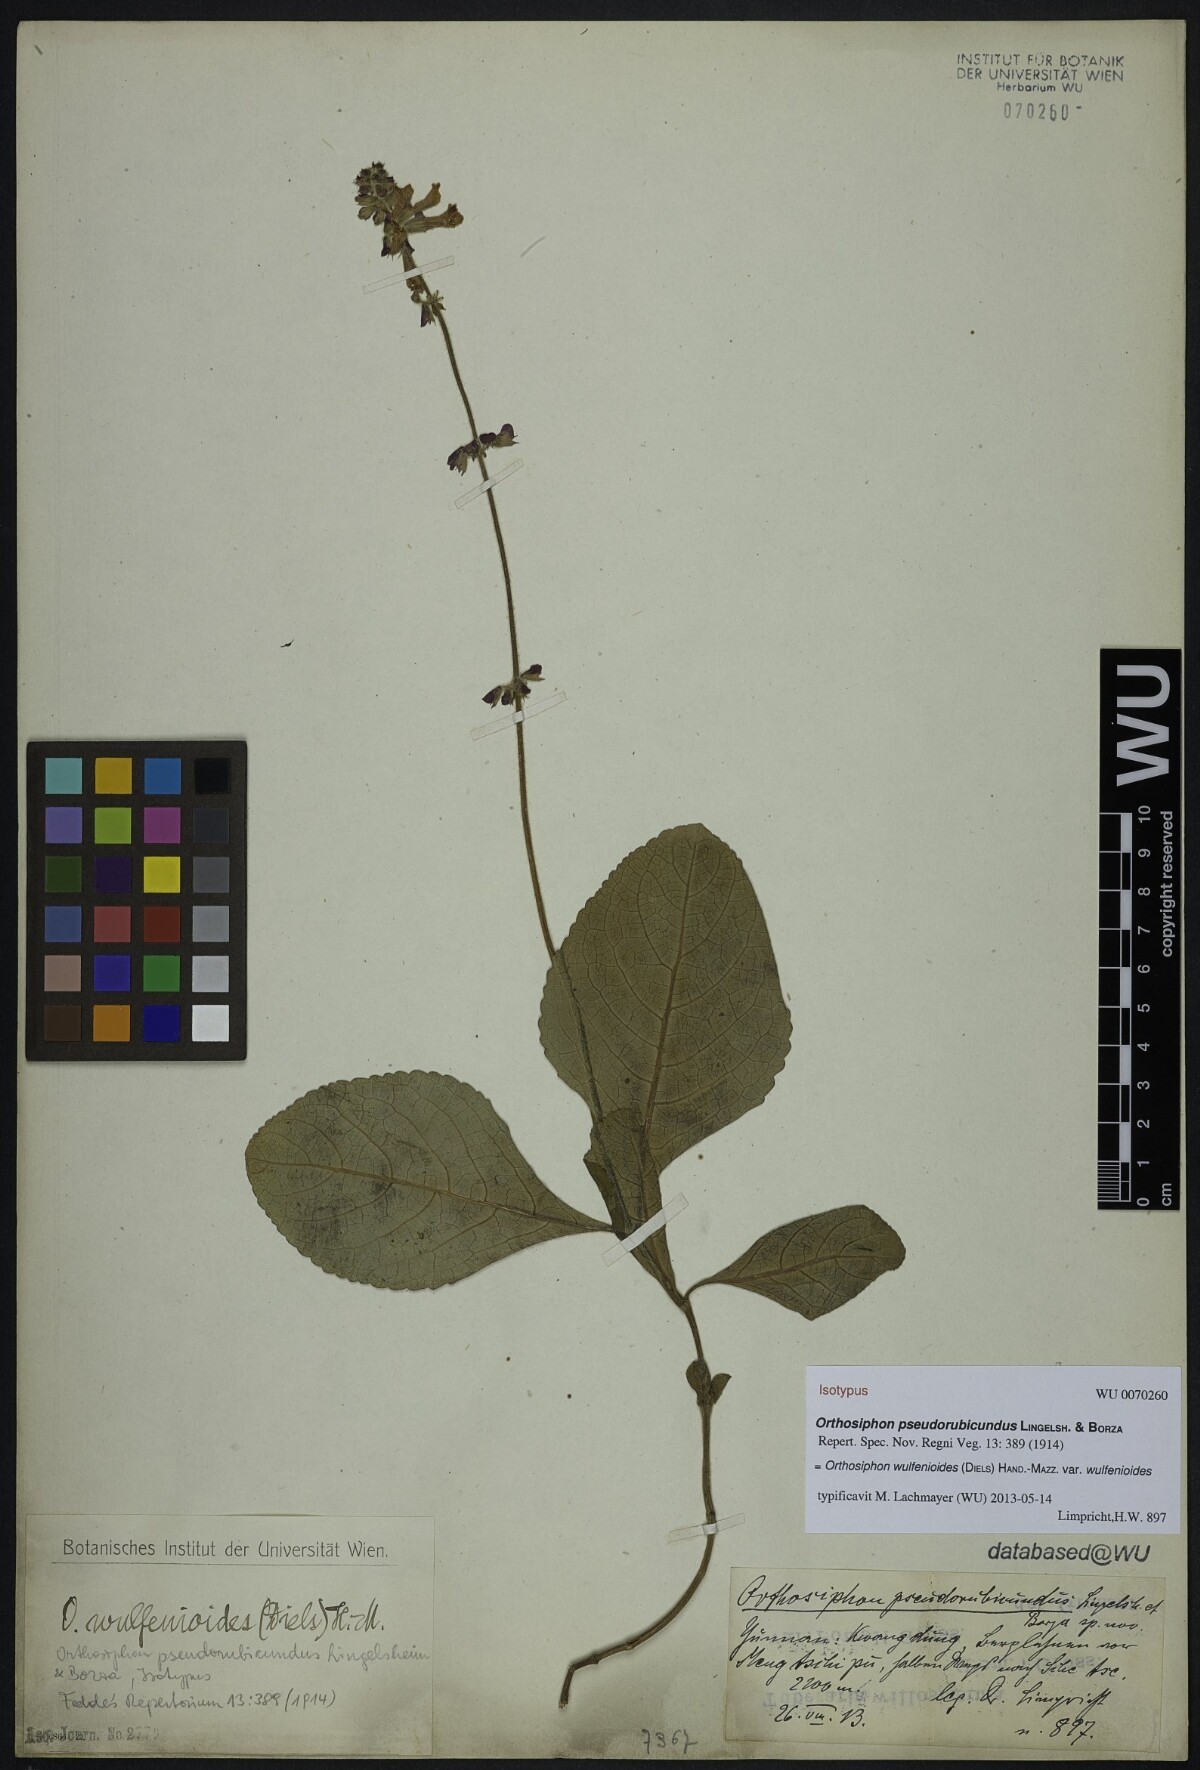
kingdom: Plantae
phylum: Tracheophyta
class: Magnoliopsida
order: Lamiales
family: Lamiaceae
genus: Orthosiphon
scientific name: Orthosiphon wulfenioides
